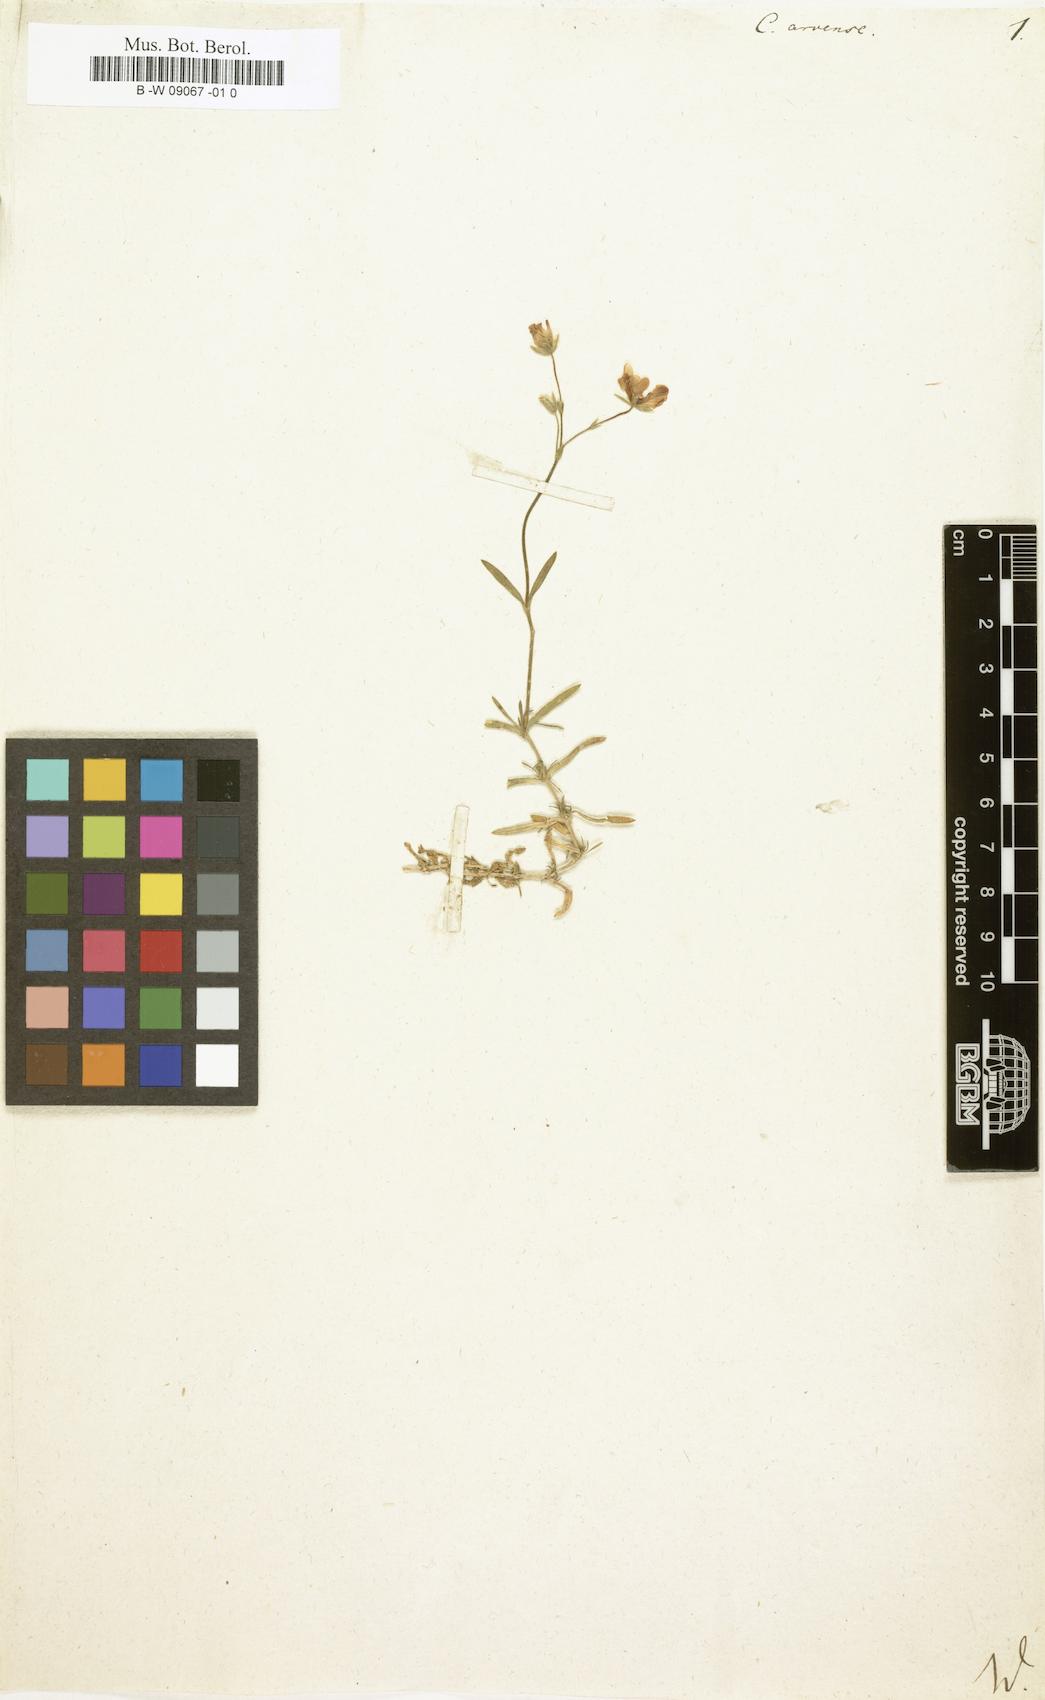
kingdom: Plantae
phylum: Tracheophyta
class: Magnoliopsida
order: Caryophyllales
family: Caryophyllaceae
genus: Cerastium
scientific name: Cerastium arvense
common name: Field mouse-ear
